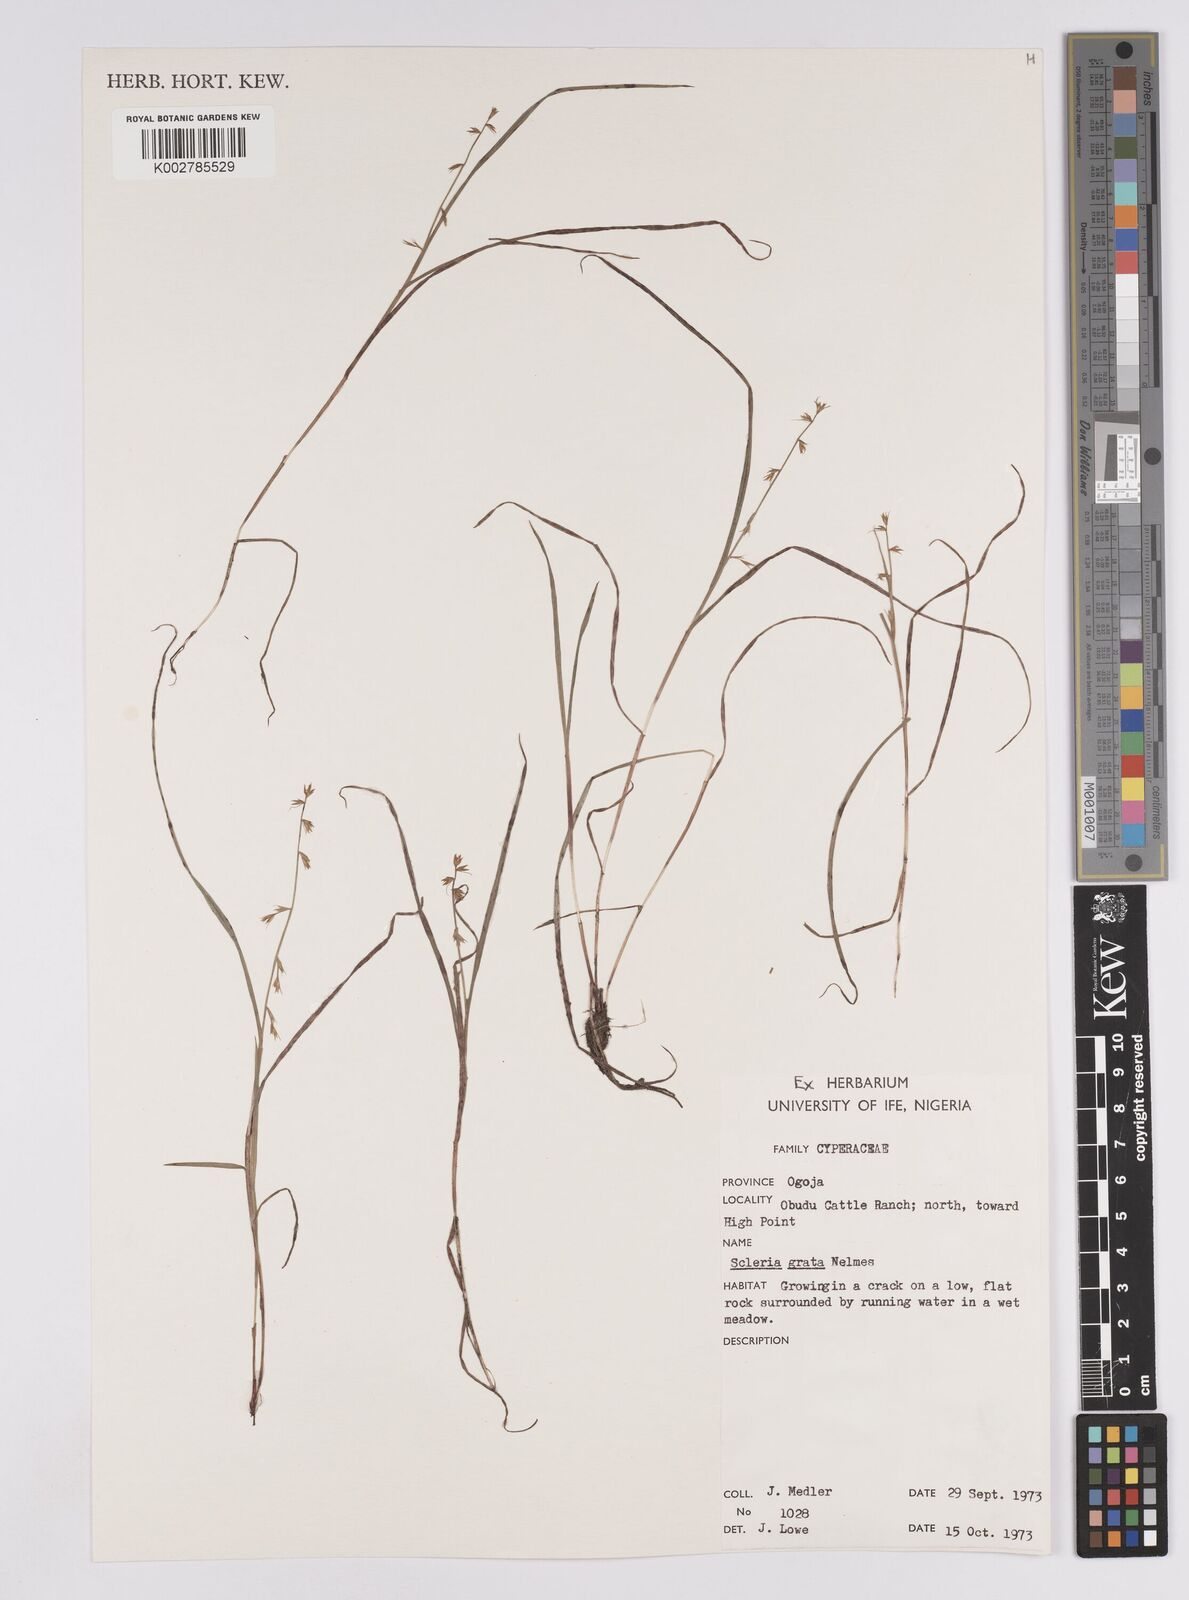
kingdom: Plantae
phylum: Tracheophyta
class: Liliopsida
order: Poales
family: Cyperaceae
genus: Scleria
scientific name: Scleria melanotricha
